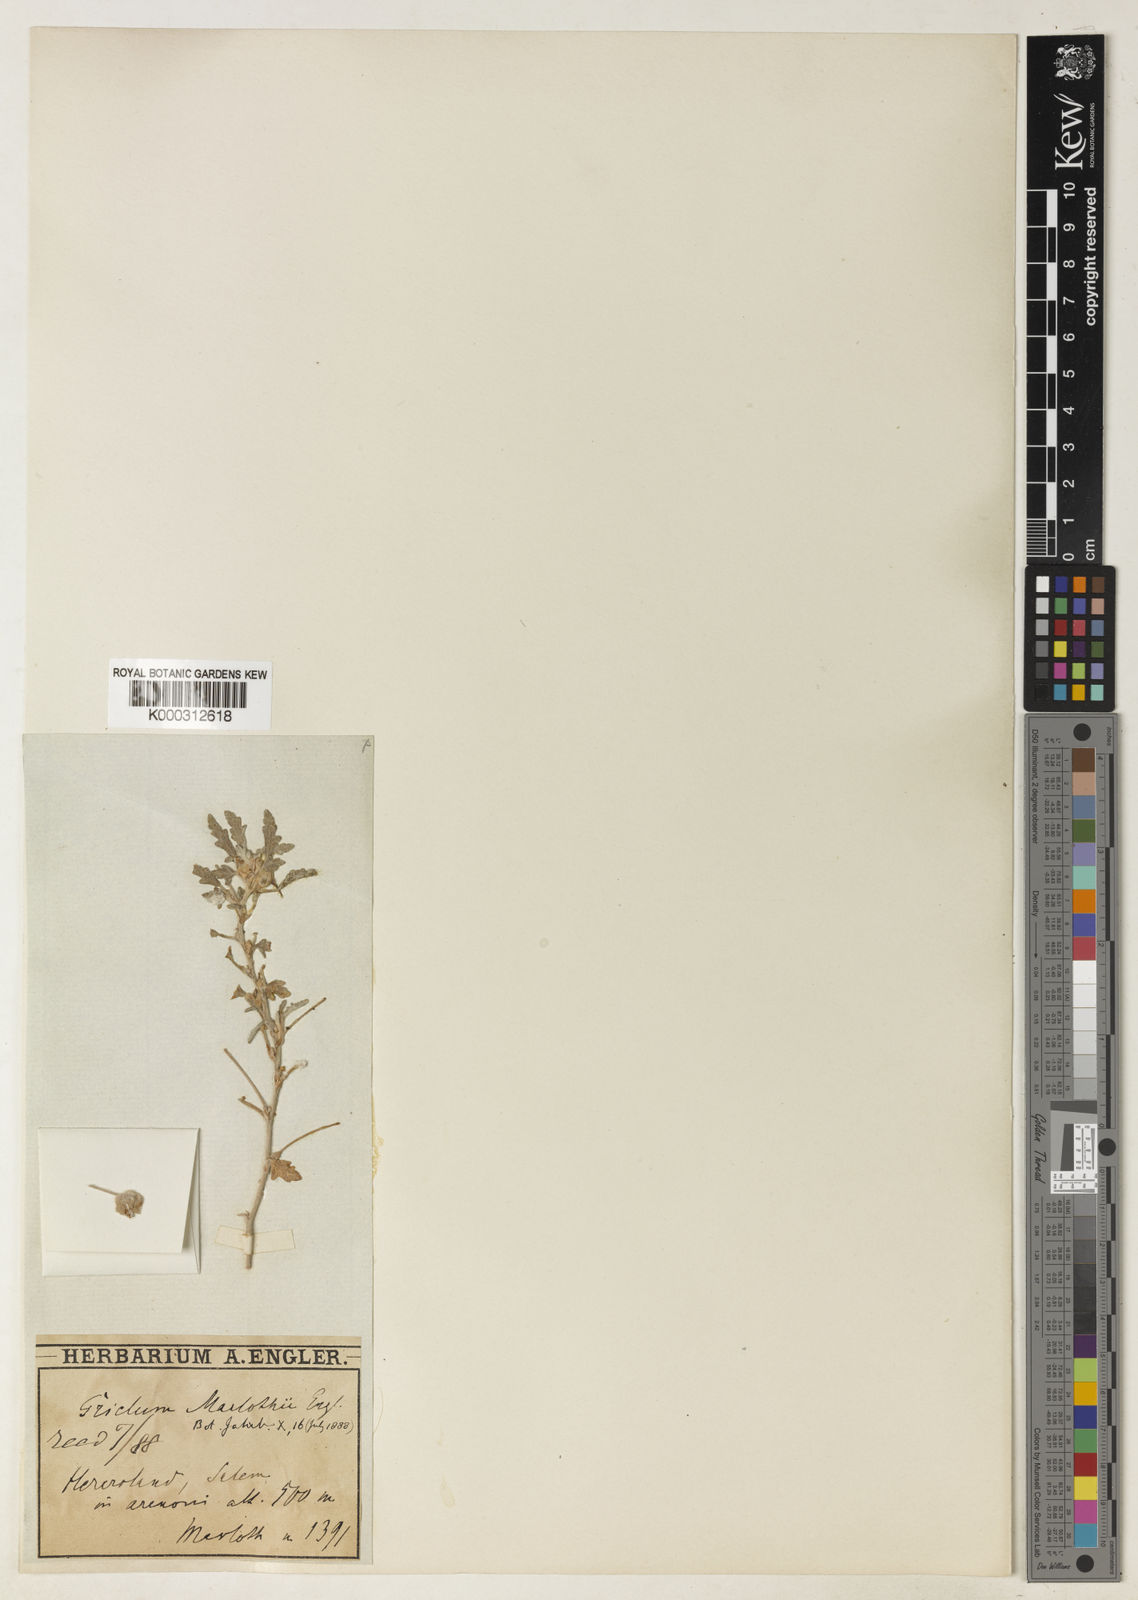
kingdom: Plantae
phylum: Tracheophyta
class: Magnoliopsida
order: Malvales
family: Neuradaceae
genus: Grielum
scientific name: Grielum sinuatum
